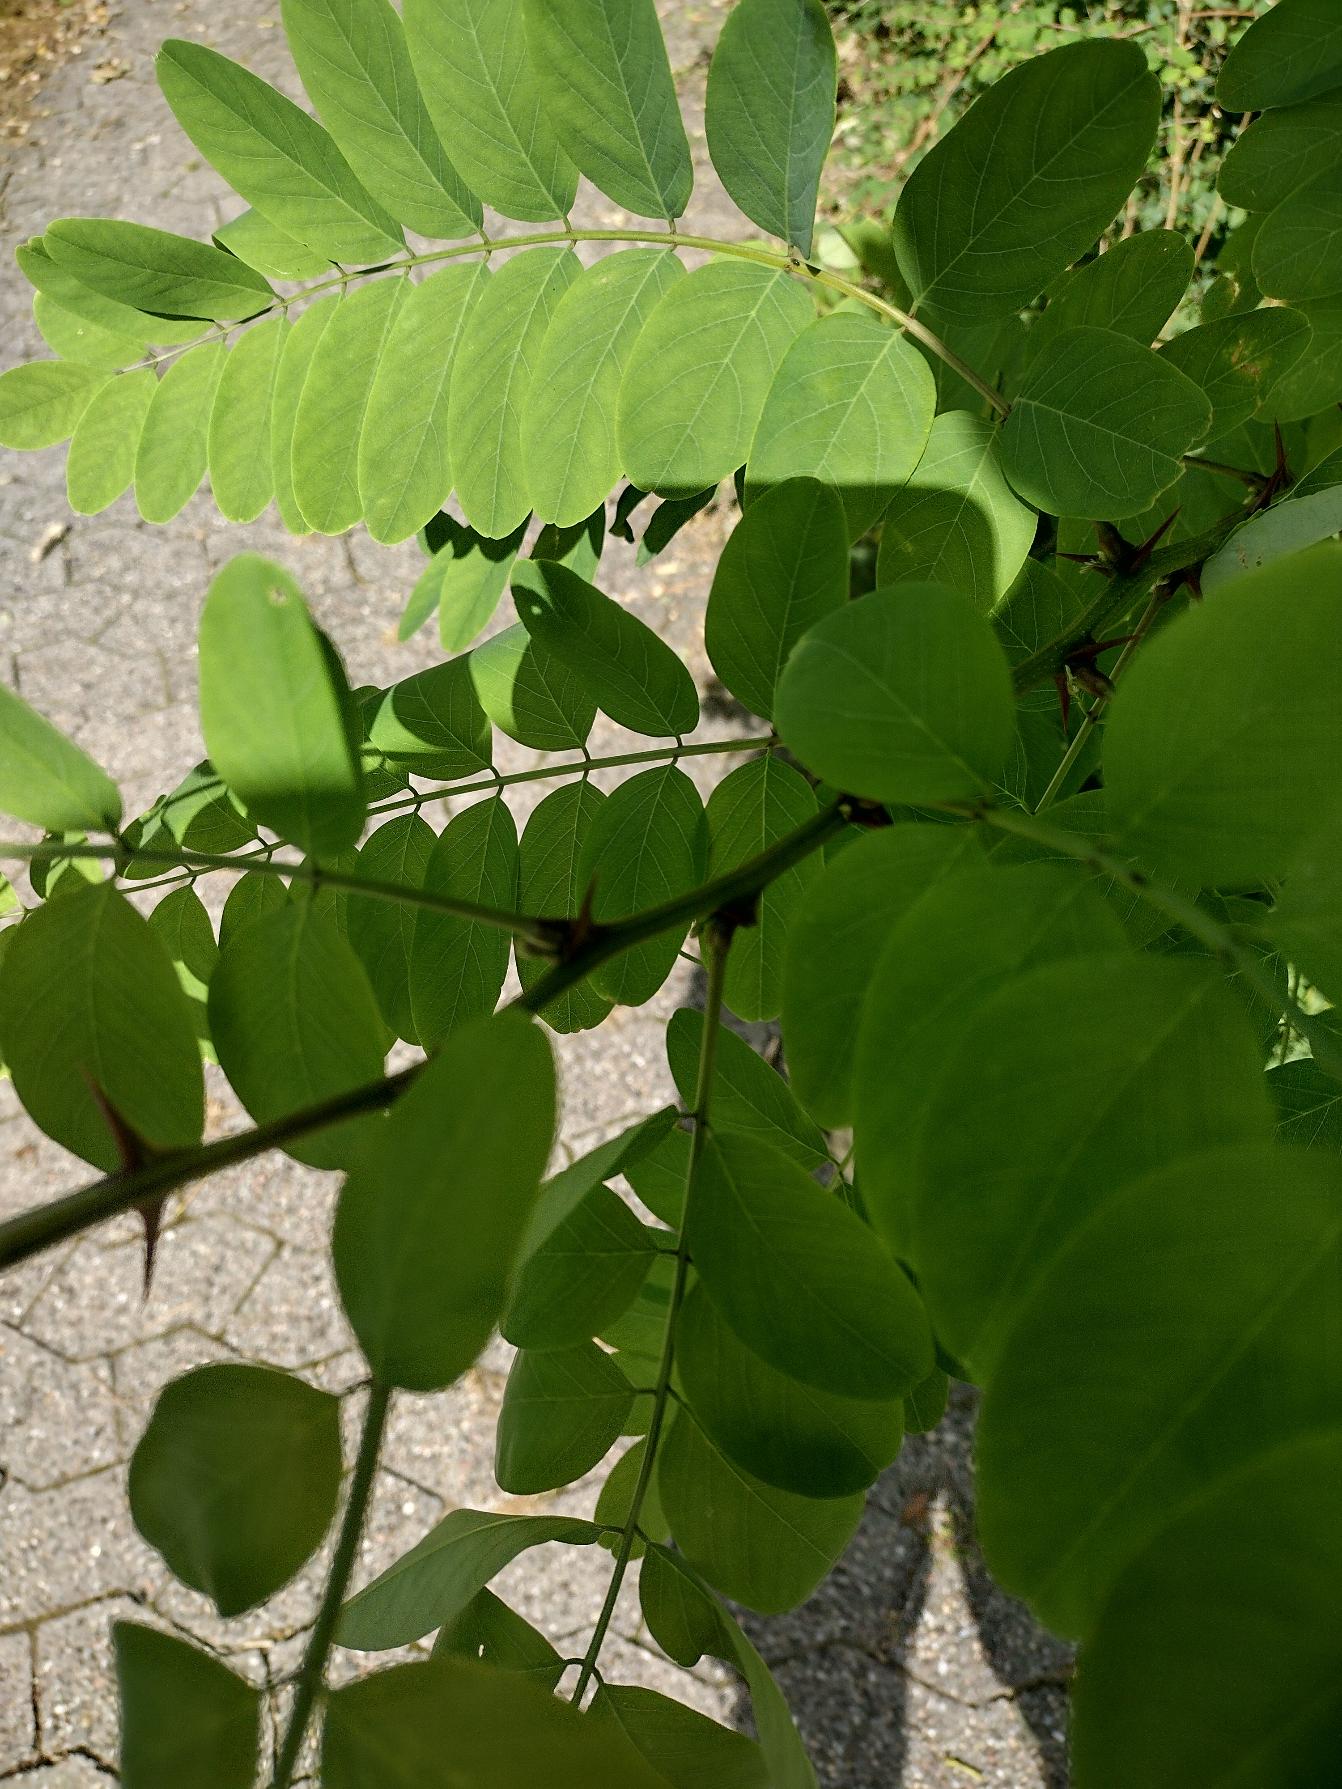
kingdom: Plantae
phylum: Tracheophyta
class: Magnoliopsida
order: Fabales
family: Fabaceae
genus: Robinia
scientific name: Robinia pseudoacacia
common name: Robinie
